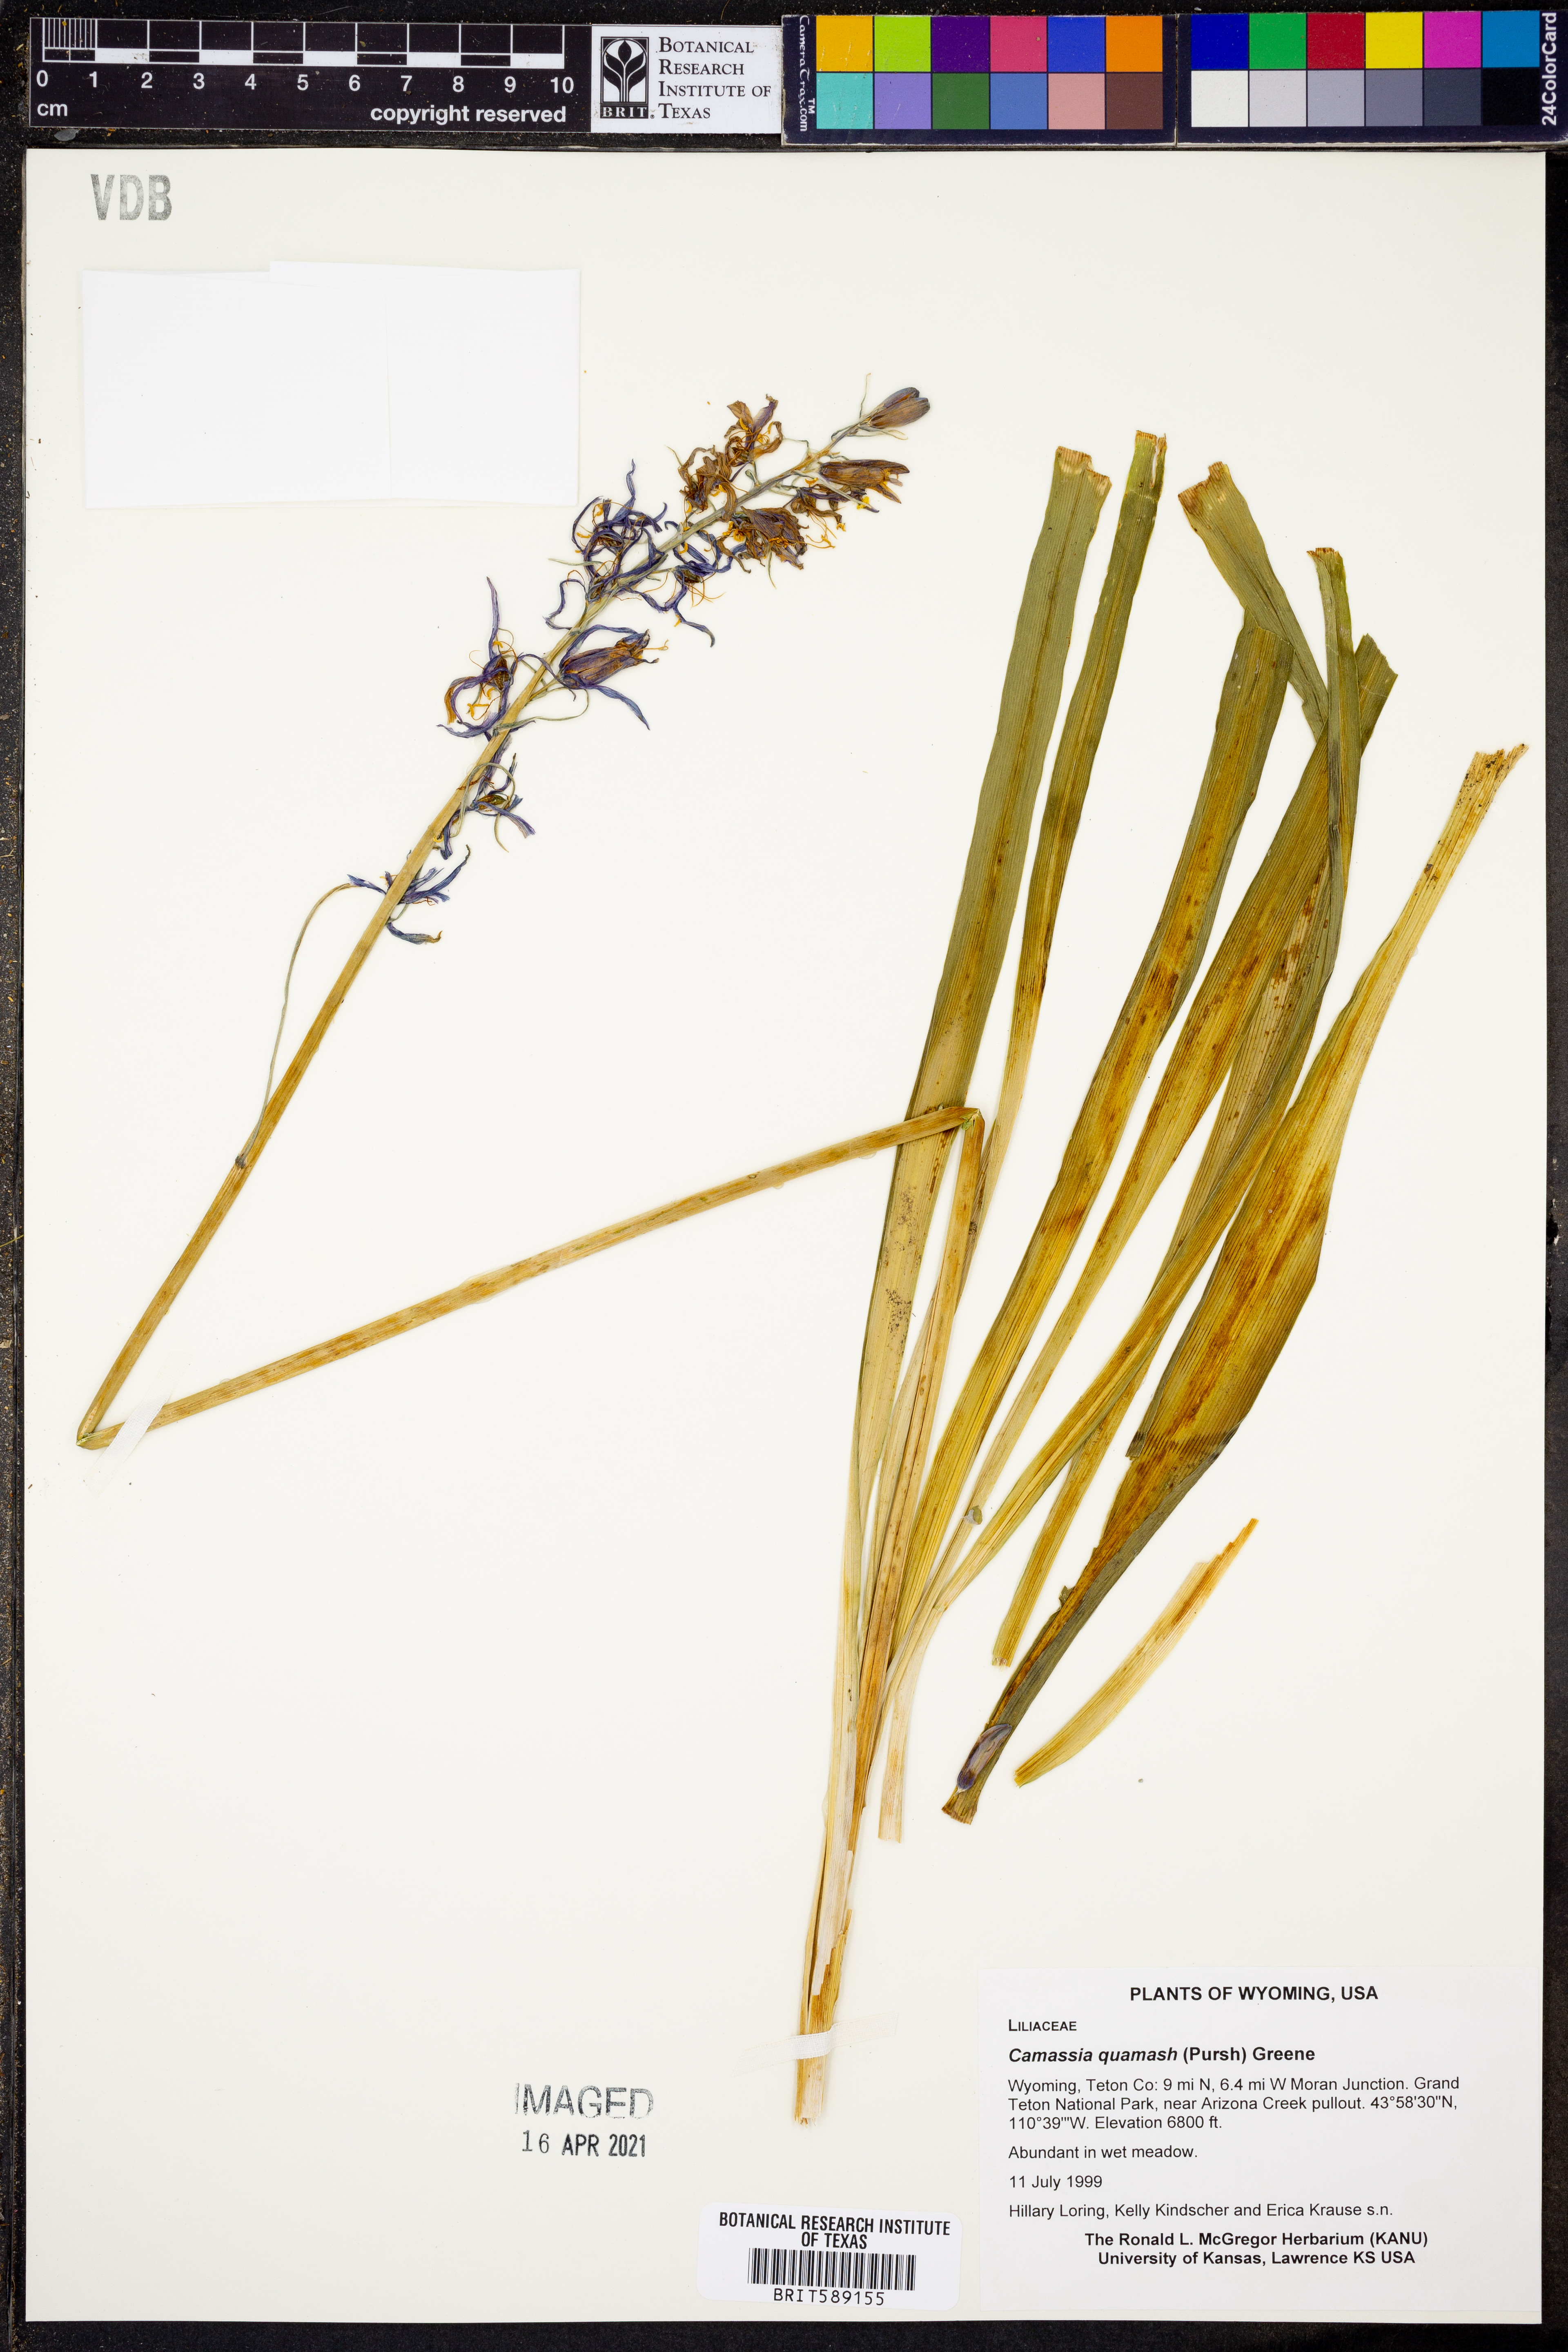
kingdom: Plantae
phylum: Tracheophyta
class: Liliopsida
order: Asparagales
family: Asparagaceae
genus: Camassia
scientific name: Camassia quamash
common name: Common camas
